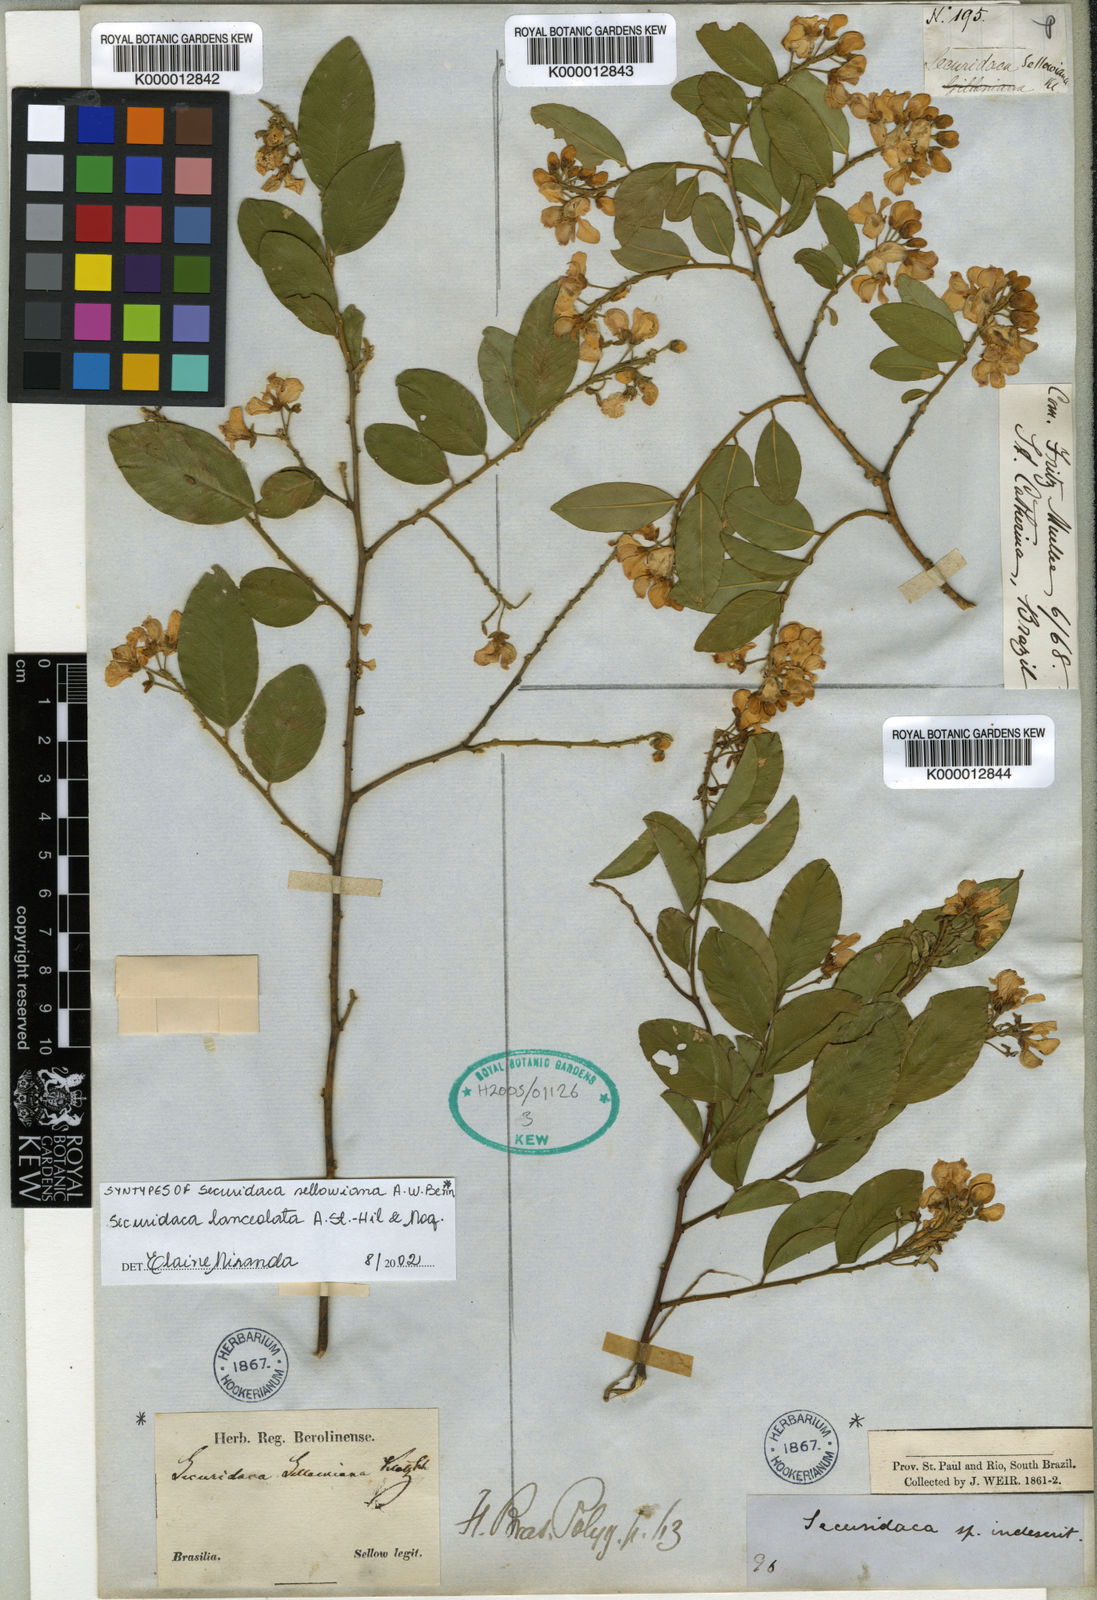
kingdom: Plantae
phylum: Tracheophyta
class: Magnoliopsida
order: Fabales
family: Polygalaceae
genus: Securidaca
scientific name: Securidaca lanceolata
